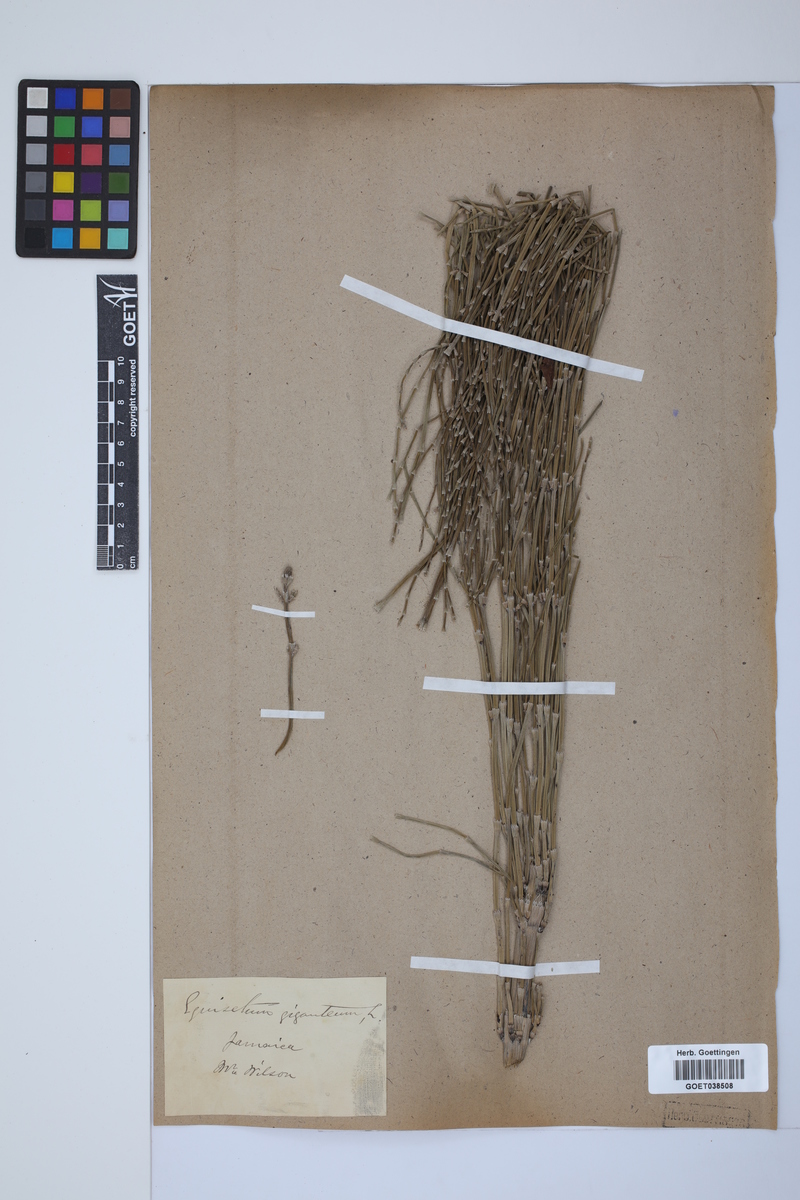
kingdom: Plantae
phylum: Tracheophyta
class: Polypodiopsida
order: Equisetales
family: Equisetaceae
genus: Equisetum
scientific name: Equisetum giganteum
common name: Giant horsetail
